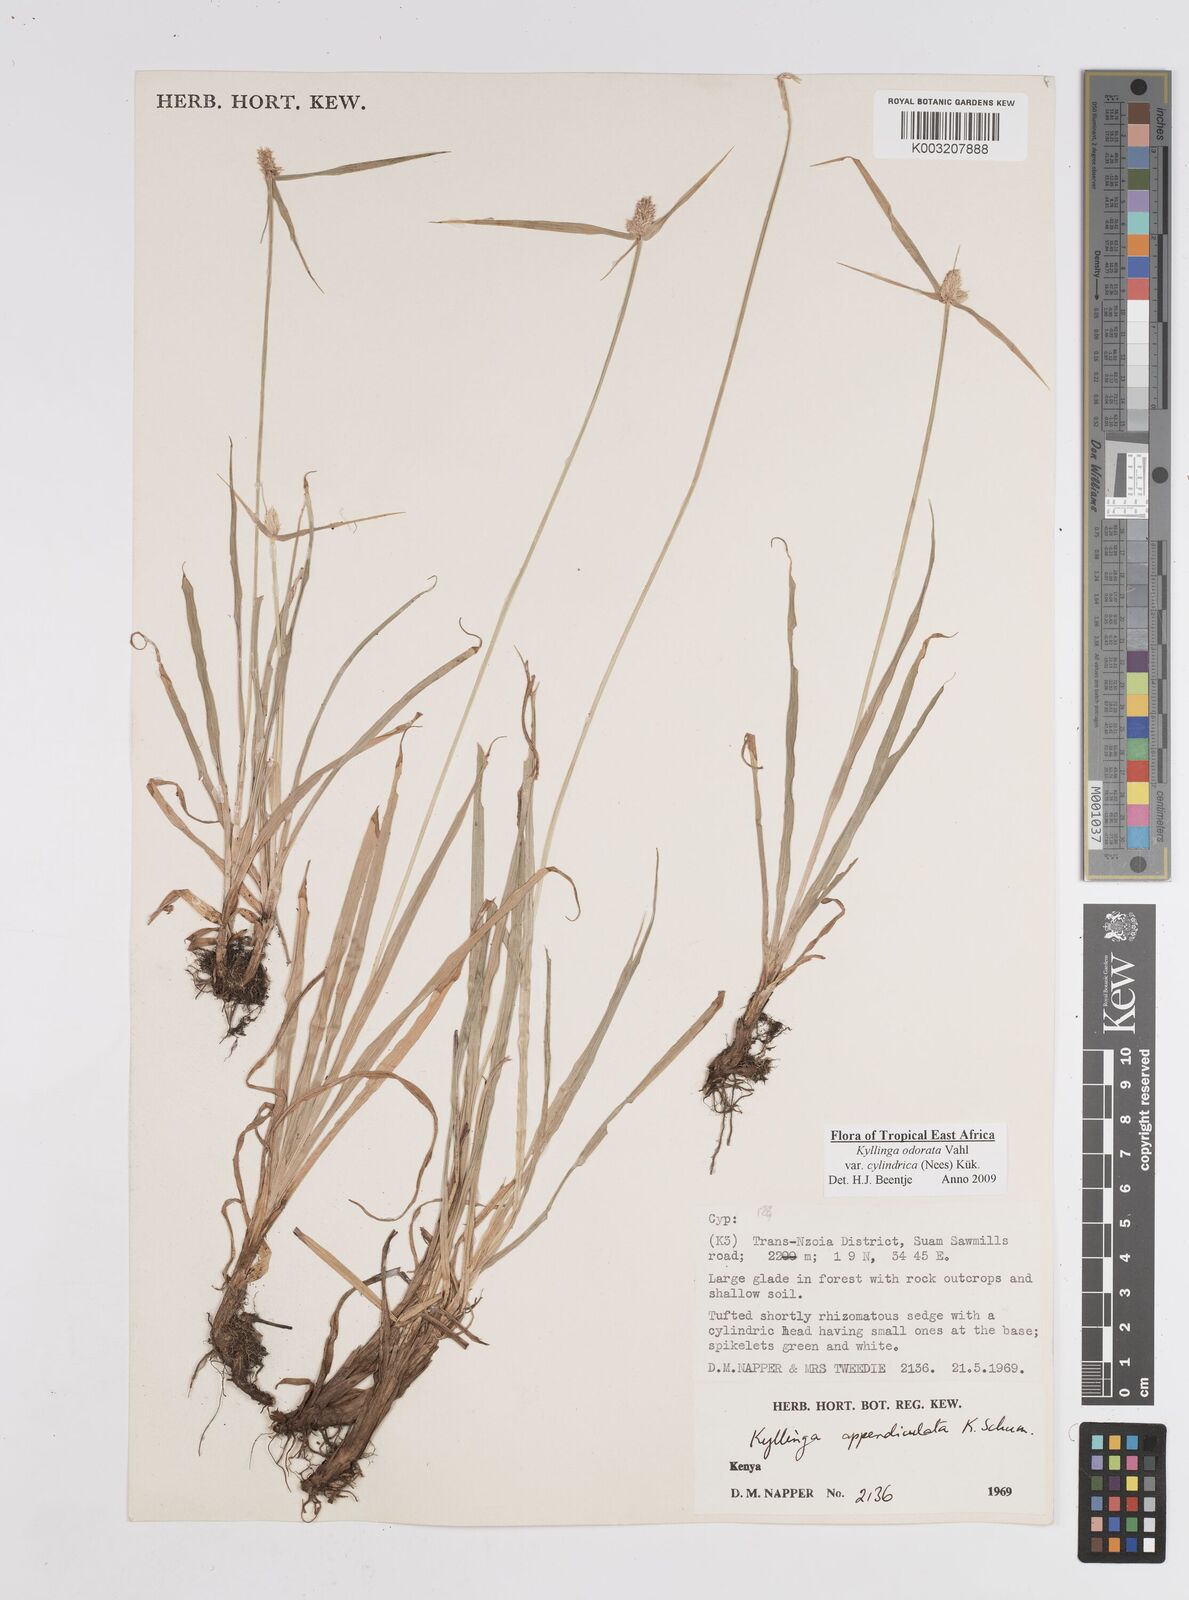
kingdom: Plantae
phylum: Tracheophyta
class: Liliopsida
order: Poales
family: Cyperaceae
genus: Cyperus
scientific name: Cyperus
